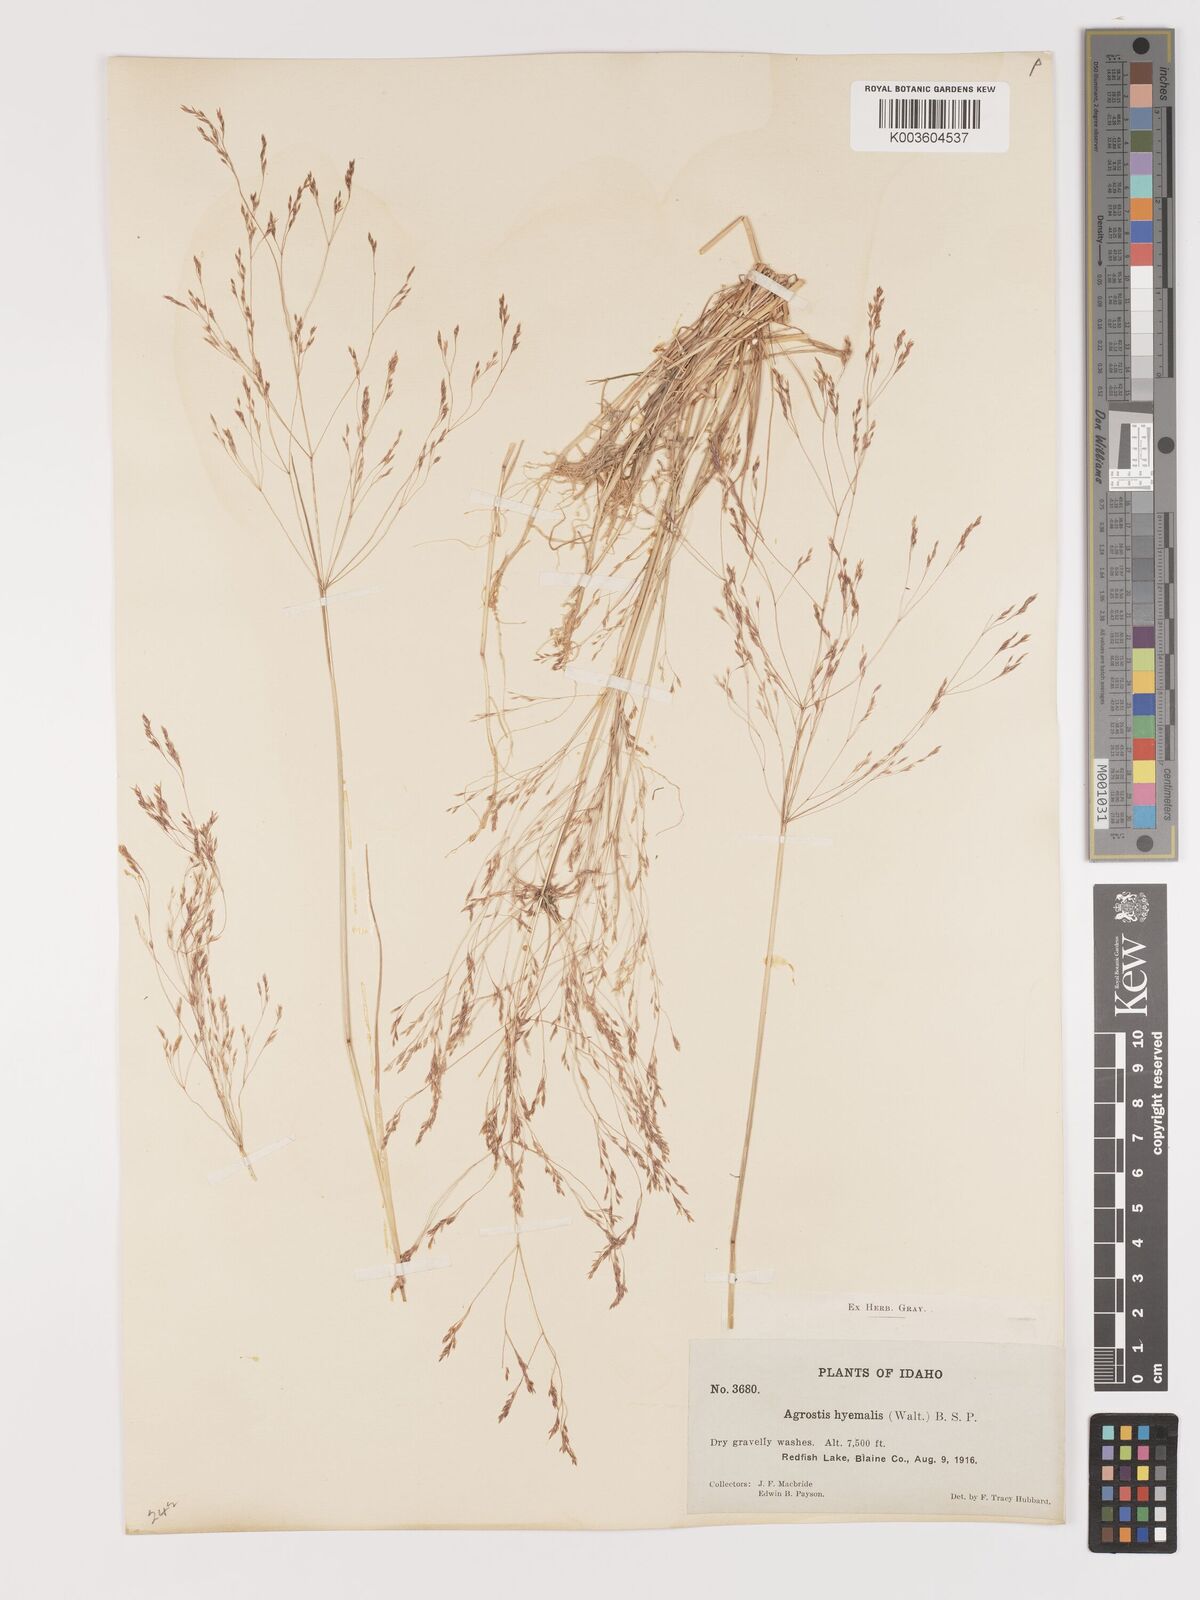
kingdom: Plantae
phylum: Tracheophyta
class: Liliopsida
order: Poales
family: Poaceae
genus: Agrostis
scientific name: Agrostis hyemalis
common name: Small bent
